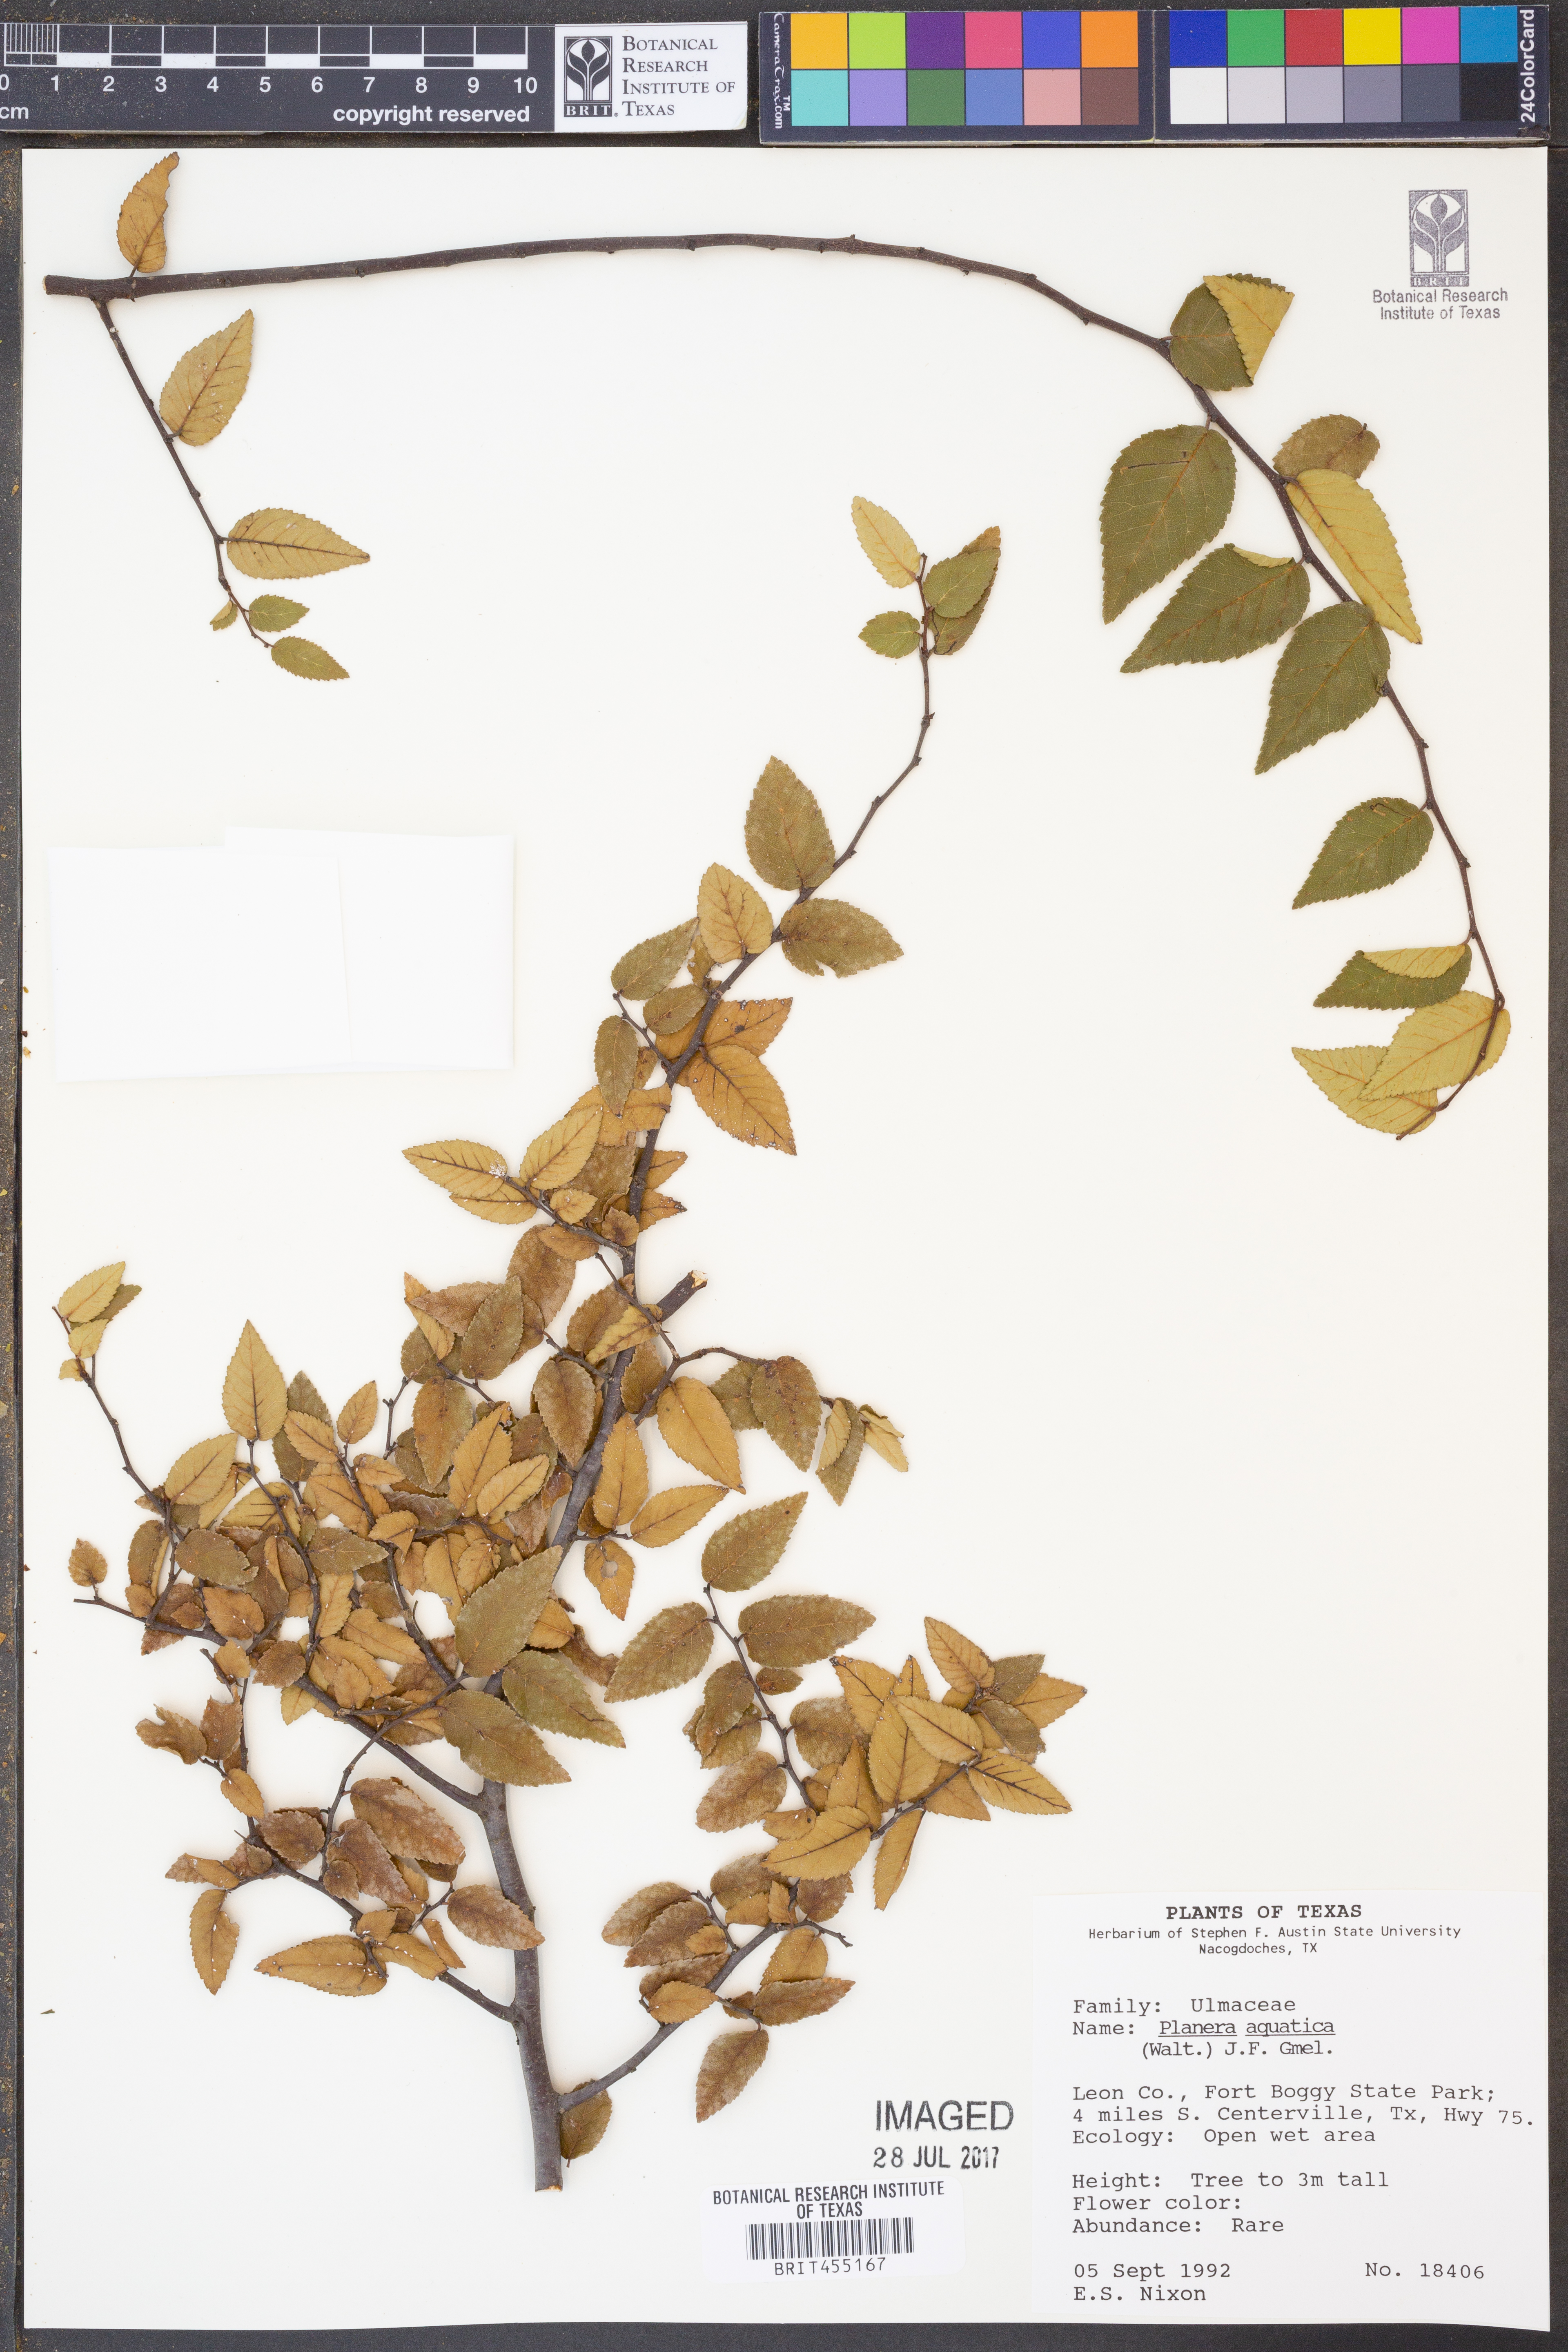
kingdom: Plantae
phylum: Tracheophyta
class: Magnoliopsida
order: Rosales
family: Ulmaceae
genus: Planera
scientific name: Planera aquatica
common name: Water-elm
